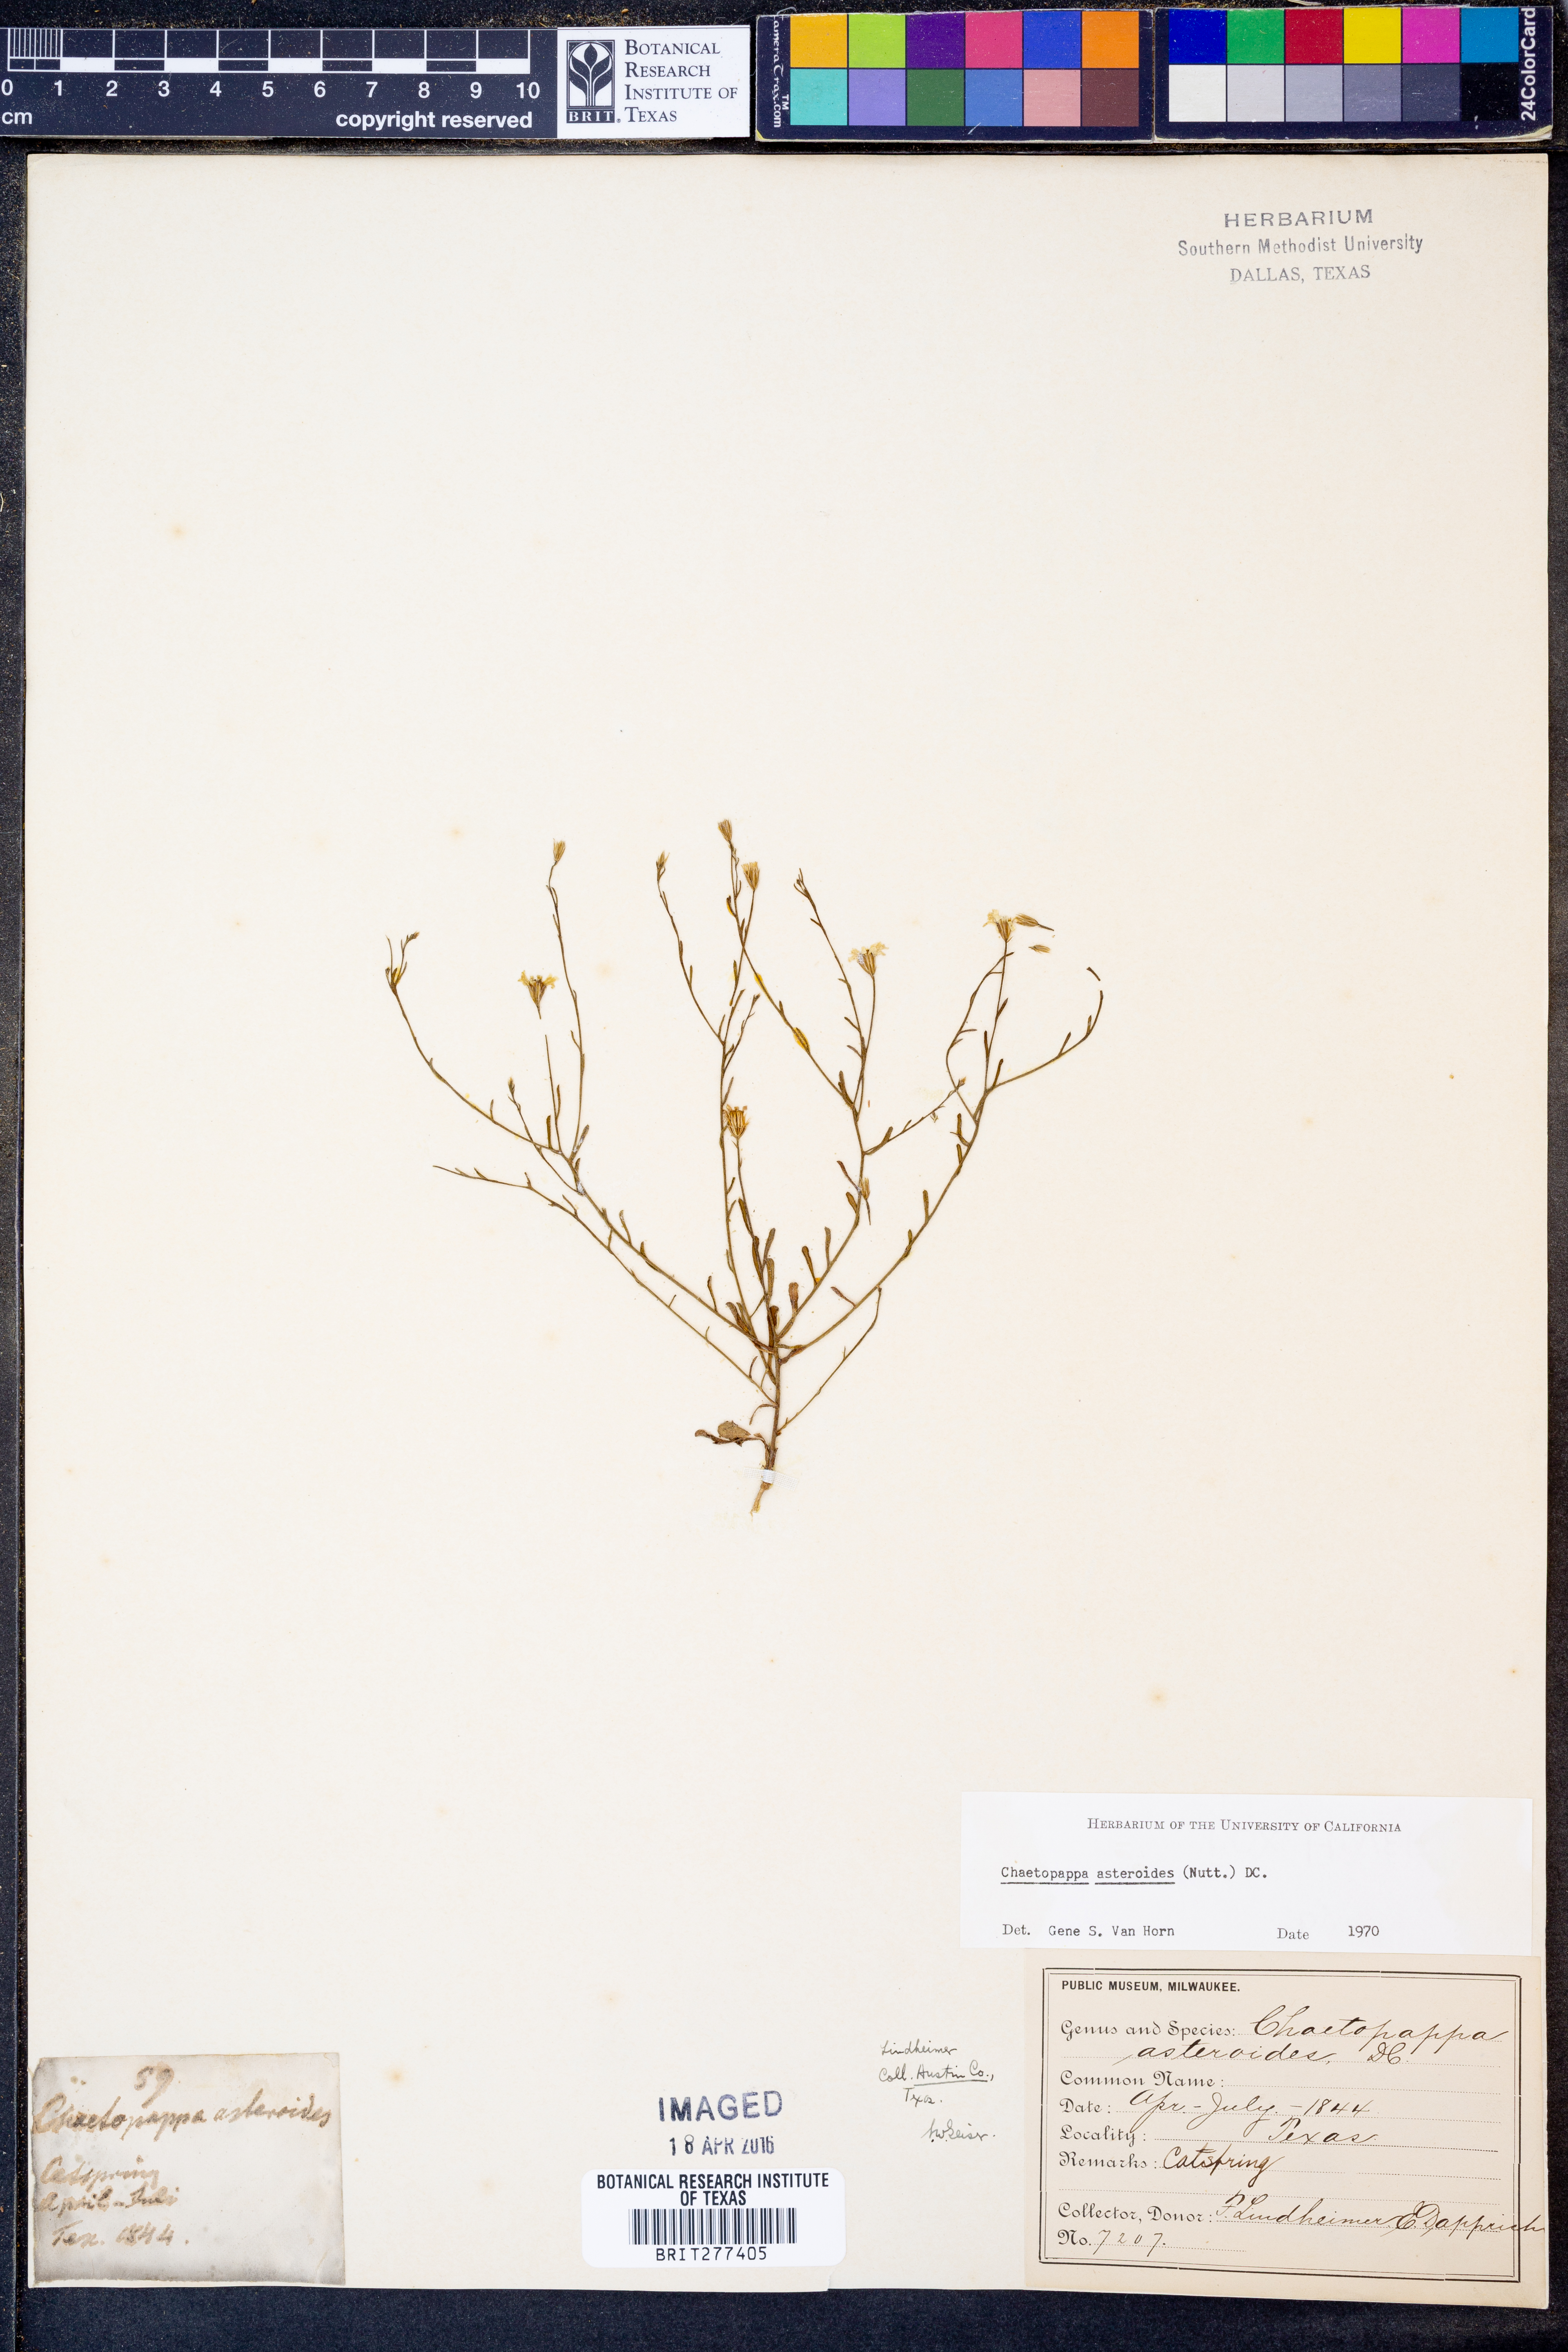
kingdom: Plantae
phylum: Tracheophyta
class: Magnoliopsida
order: Asterales
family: Asteraceae
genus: Chaetopappa
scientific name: Chaetopappa asteroides
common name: Tiny lazy daisy
